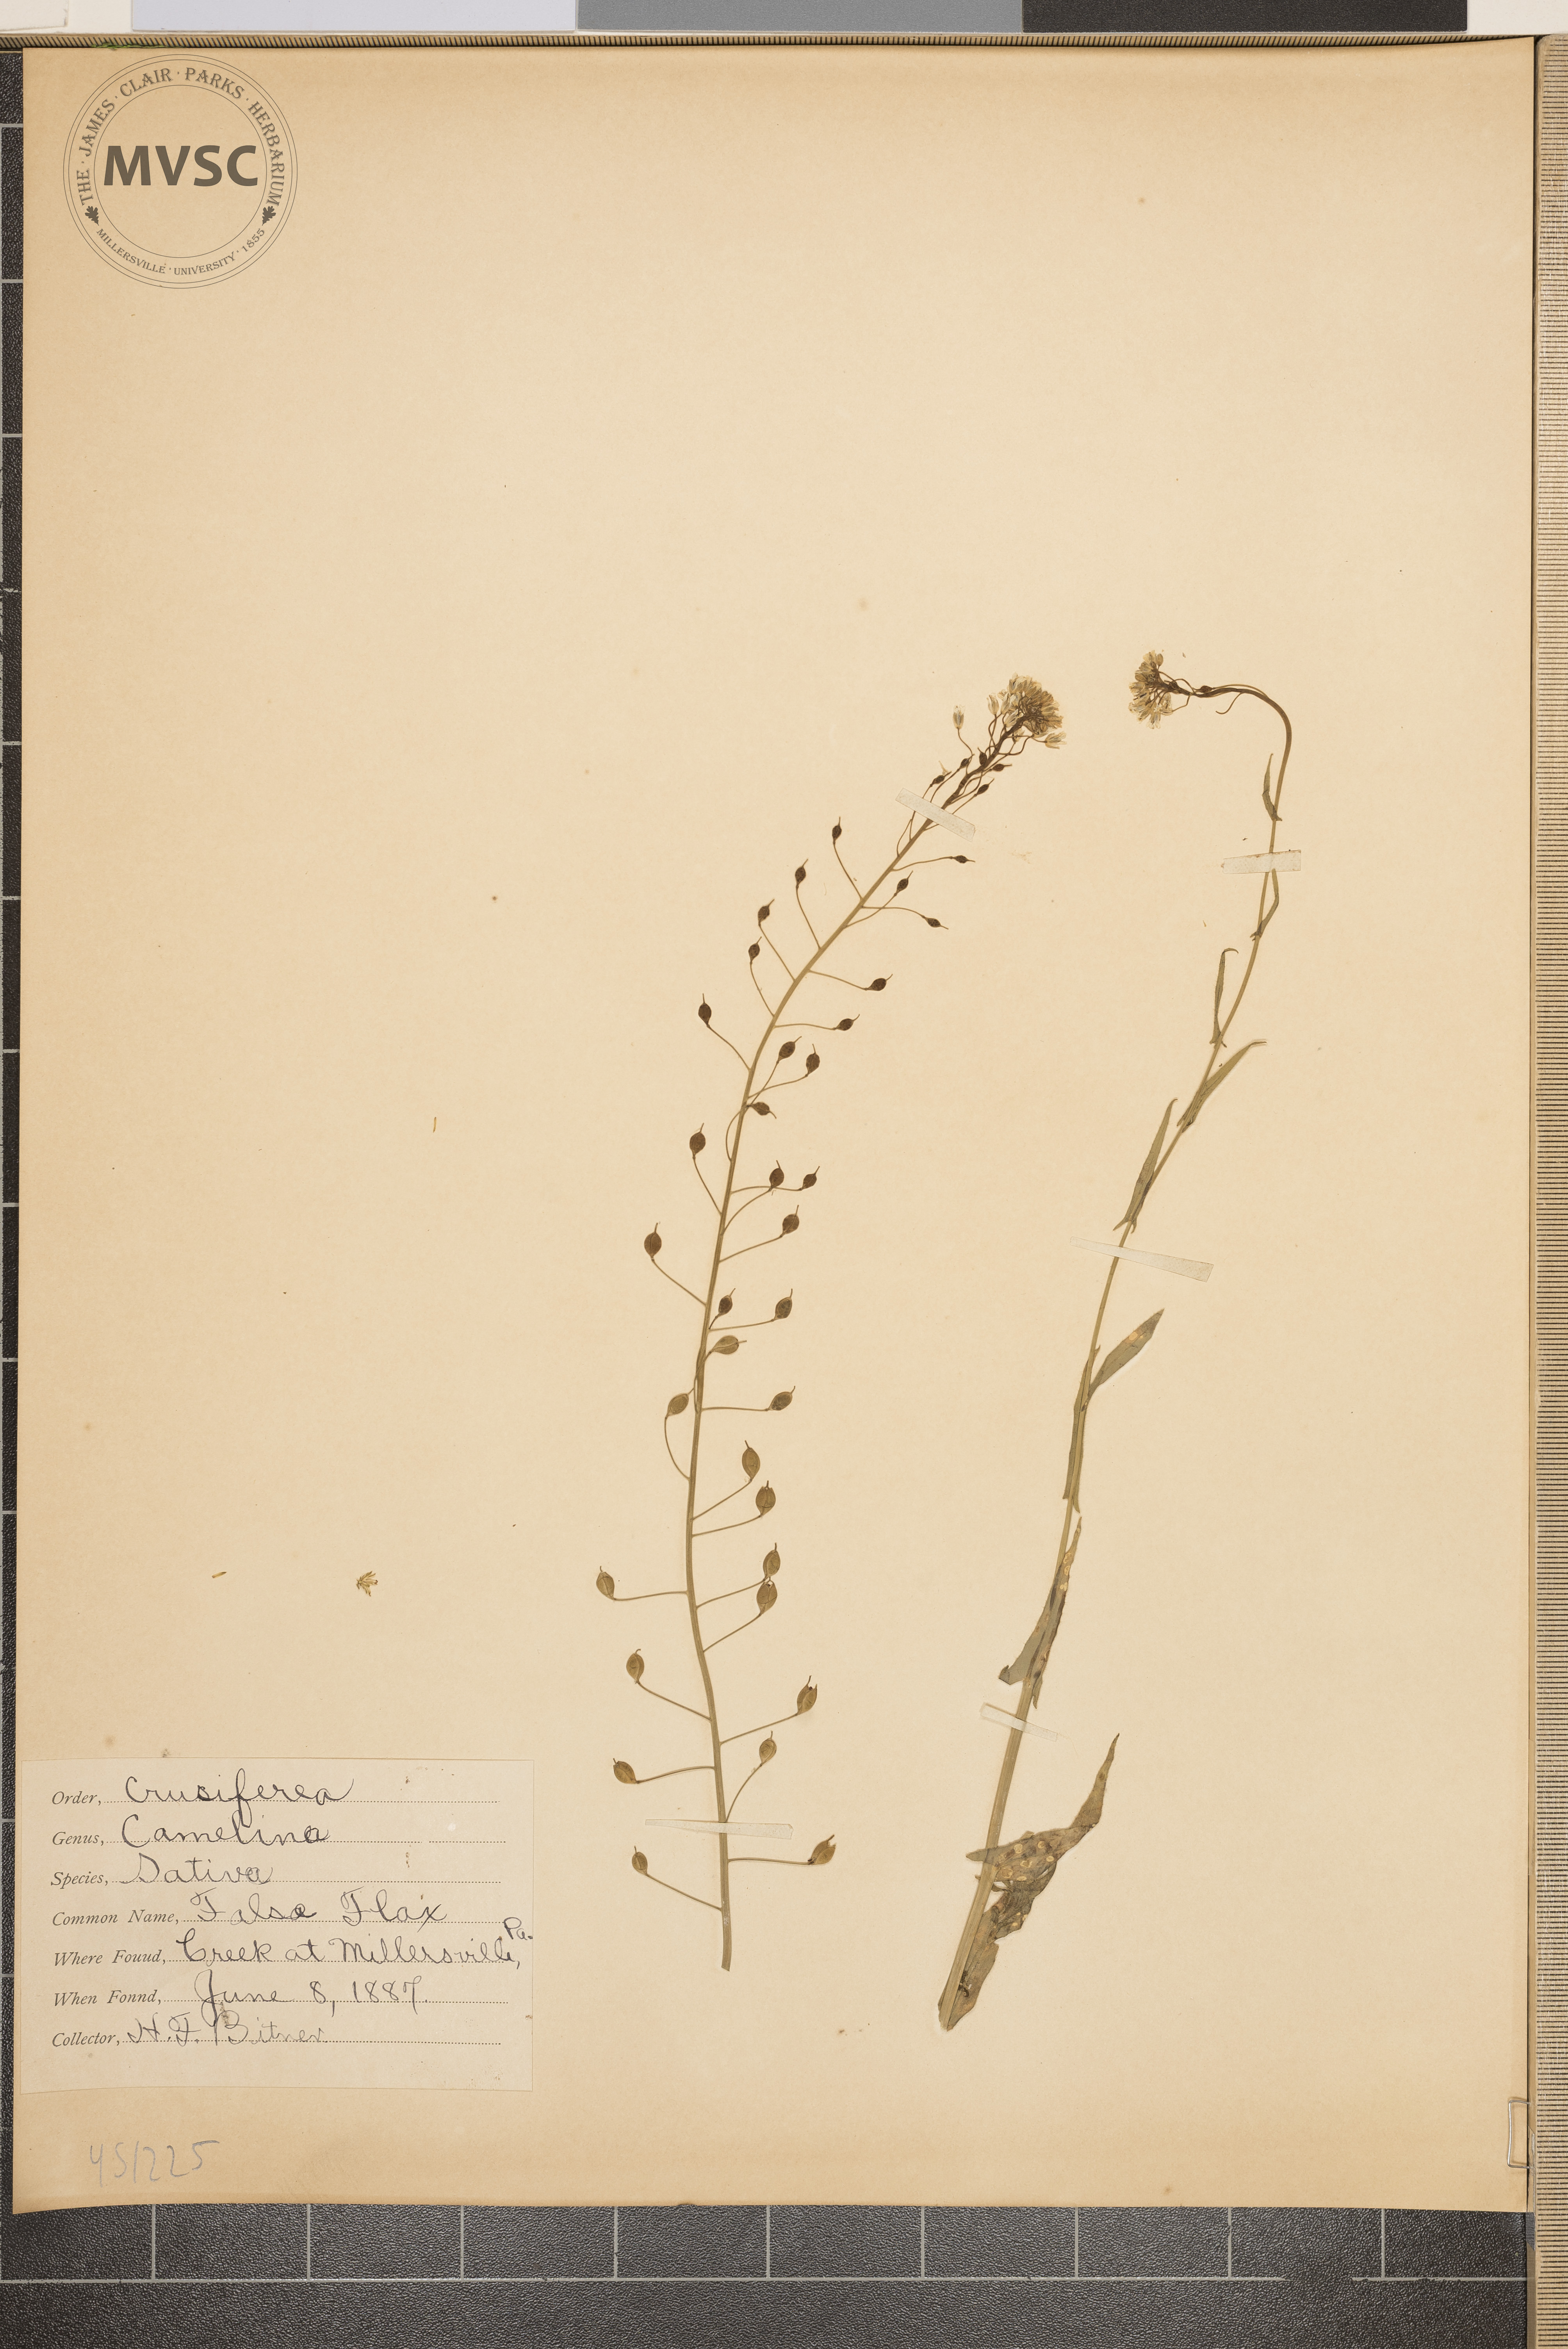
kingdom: Plantae
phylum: Tracheophyta
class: Magnoliopsida
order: Brassicales
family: Brassicaceae
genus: Camelina
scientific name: Camelina sativa
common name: False Flax
